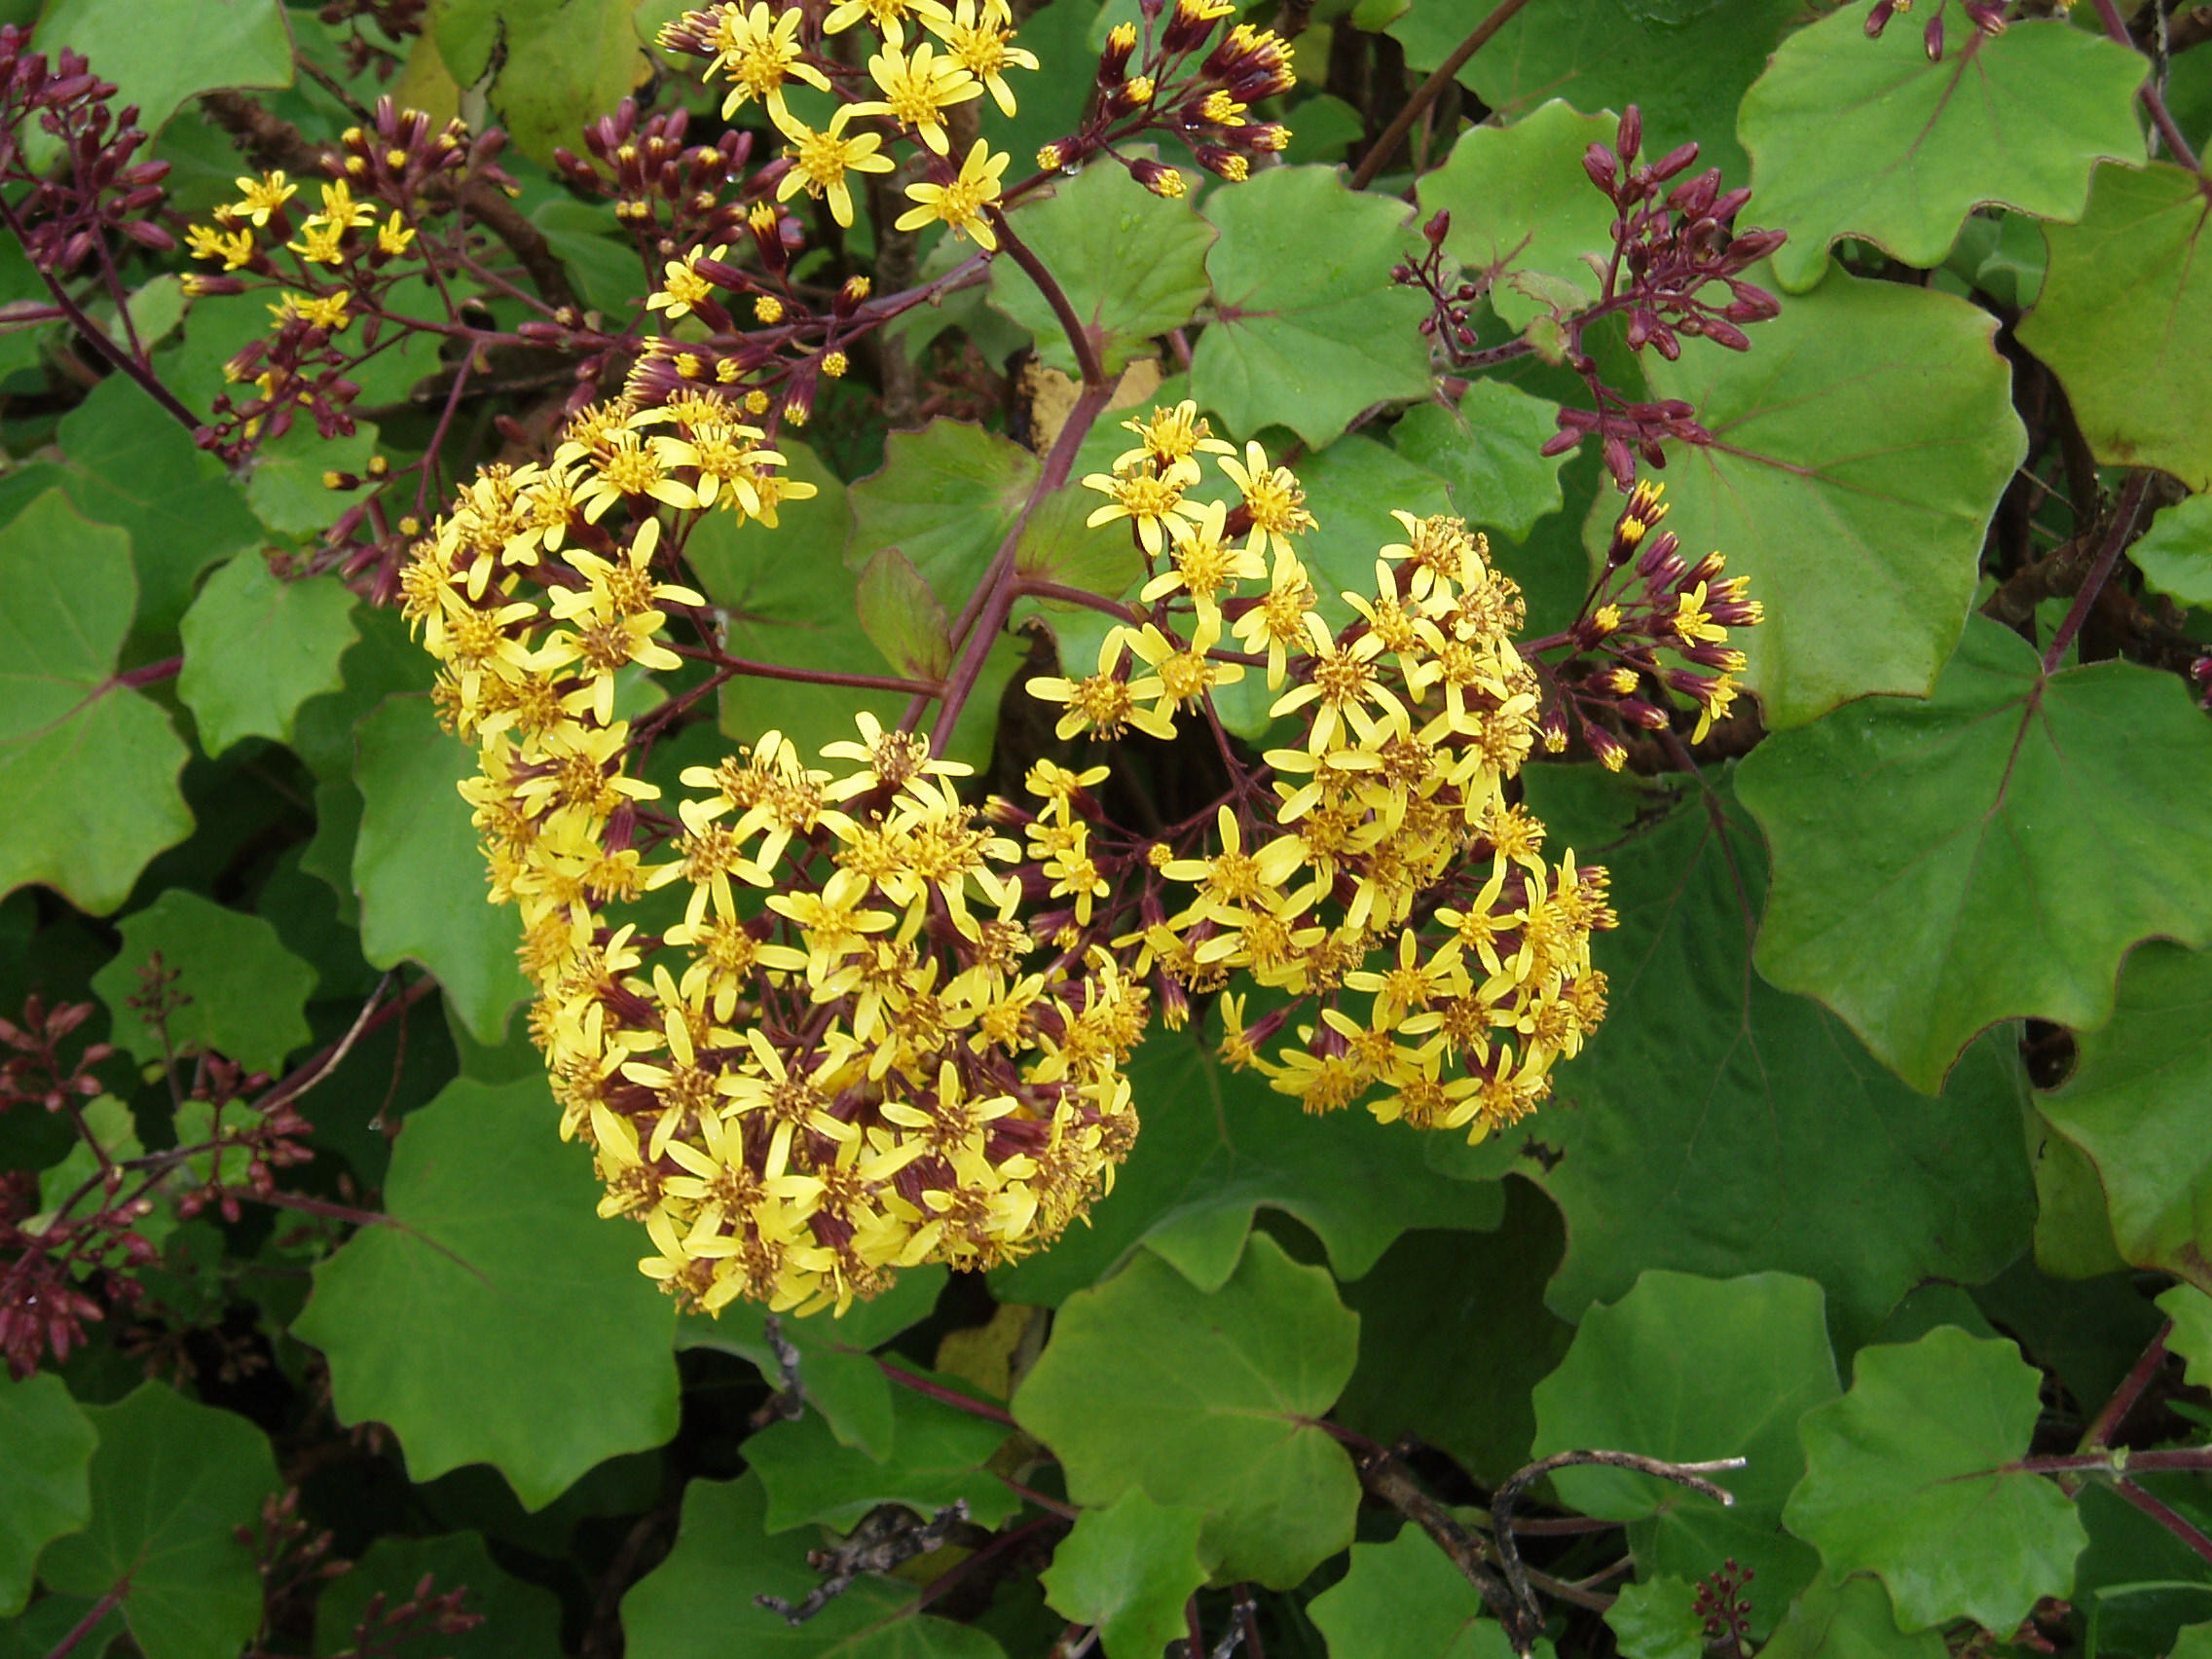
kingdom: Plantae
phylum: Tracheophyta
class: Magnoliopsida
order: Asterales
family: Asteraceae
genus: Roldana
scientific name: Roldana petasitis
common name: California-geranium
